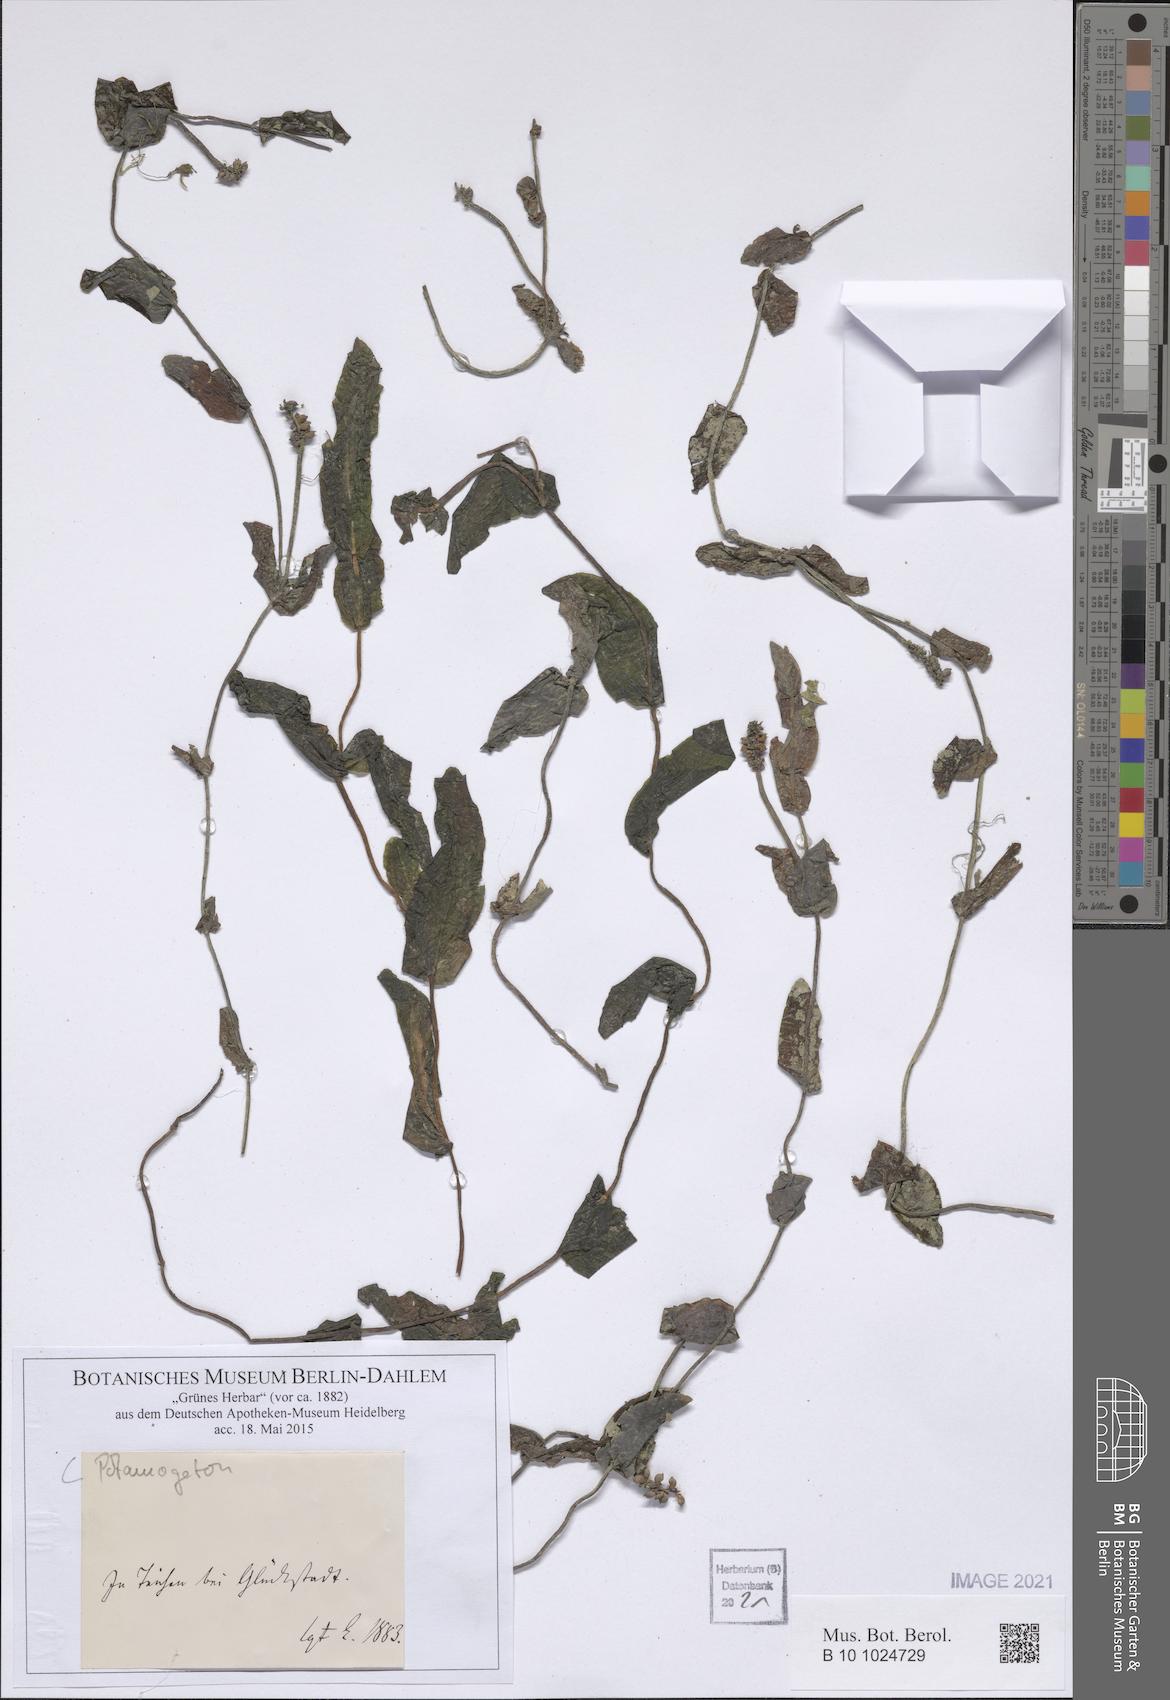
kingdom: Plantae
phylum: Tracheophyta
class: Liliopsida
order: Alismatales
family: Potamogetonaceae
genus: Potamogeton
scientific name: Potamogeton
